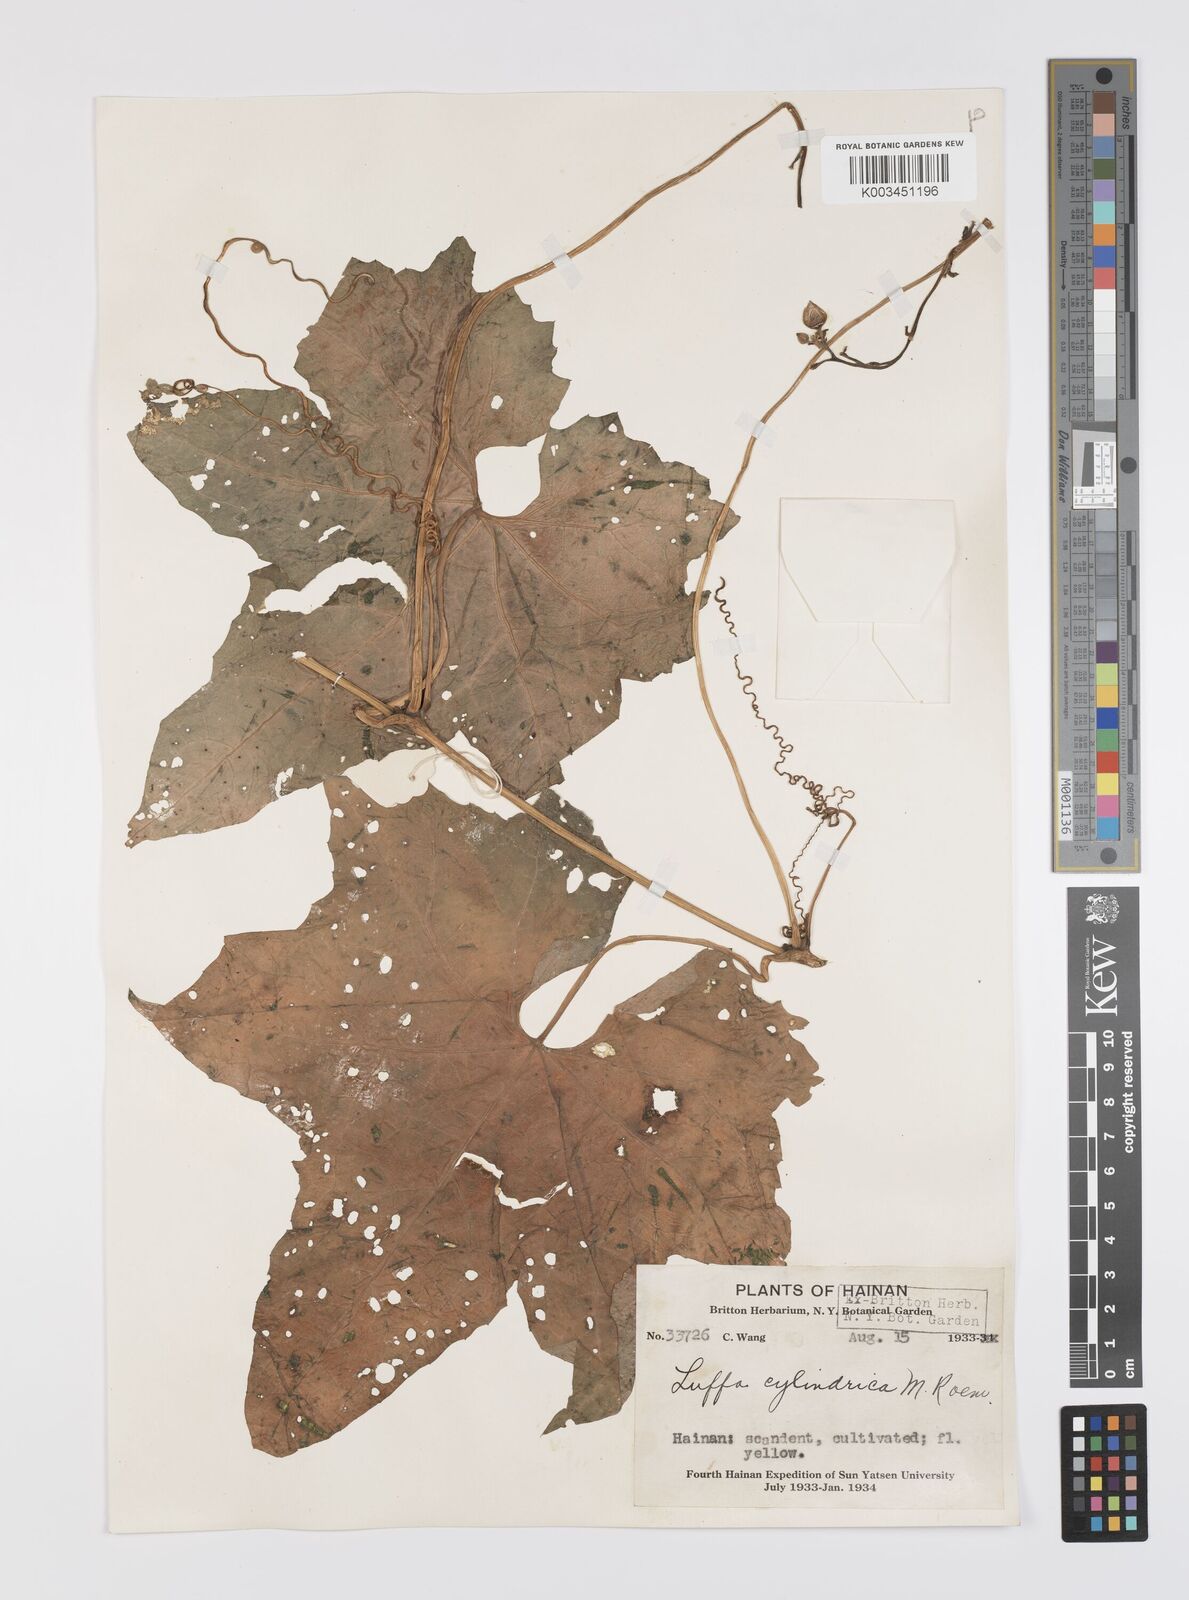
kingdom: Plantae
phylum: Tracheophyta
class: Magnoliopsida
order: Cucurbitales
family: Cucurbitaceae
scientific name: Cucurbitaceae
